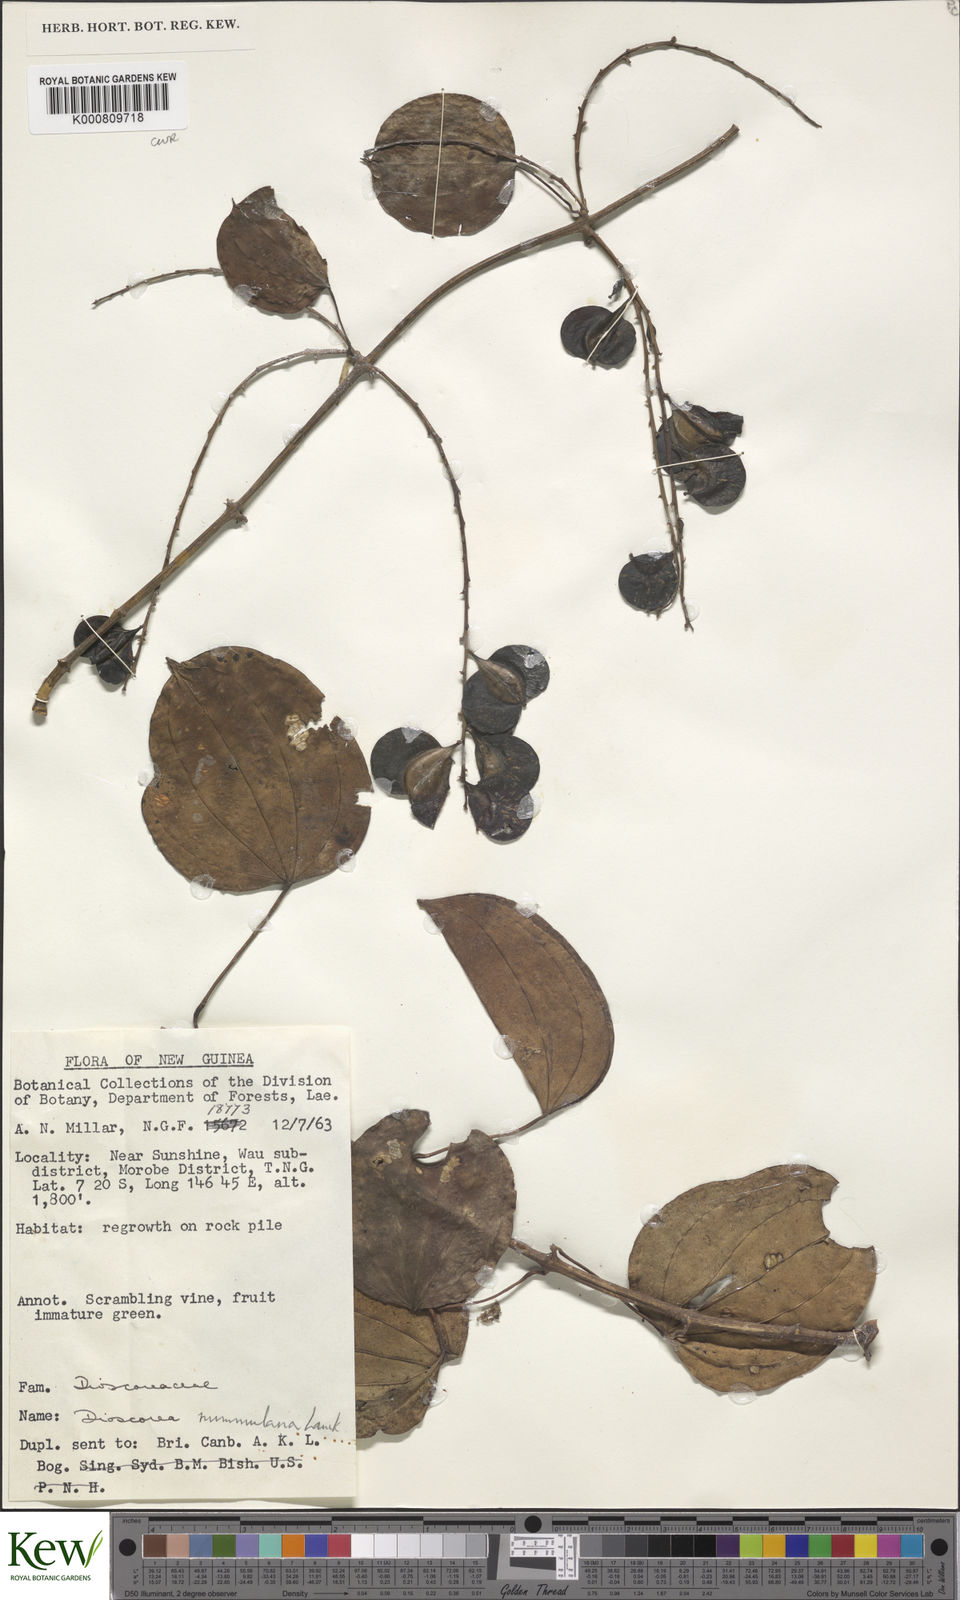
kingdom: Plantae
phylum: Tracheophyta
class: Liliopsida
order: Dioscoreales
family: Dioscoreaceae
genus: Dioscorea
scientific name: Dioscorea nummularia
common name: Pacific yam
